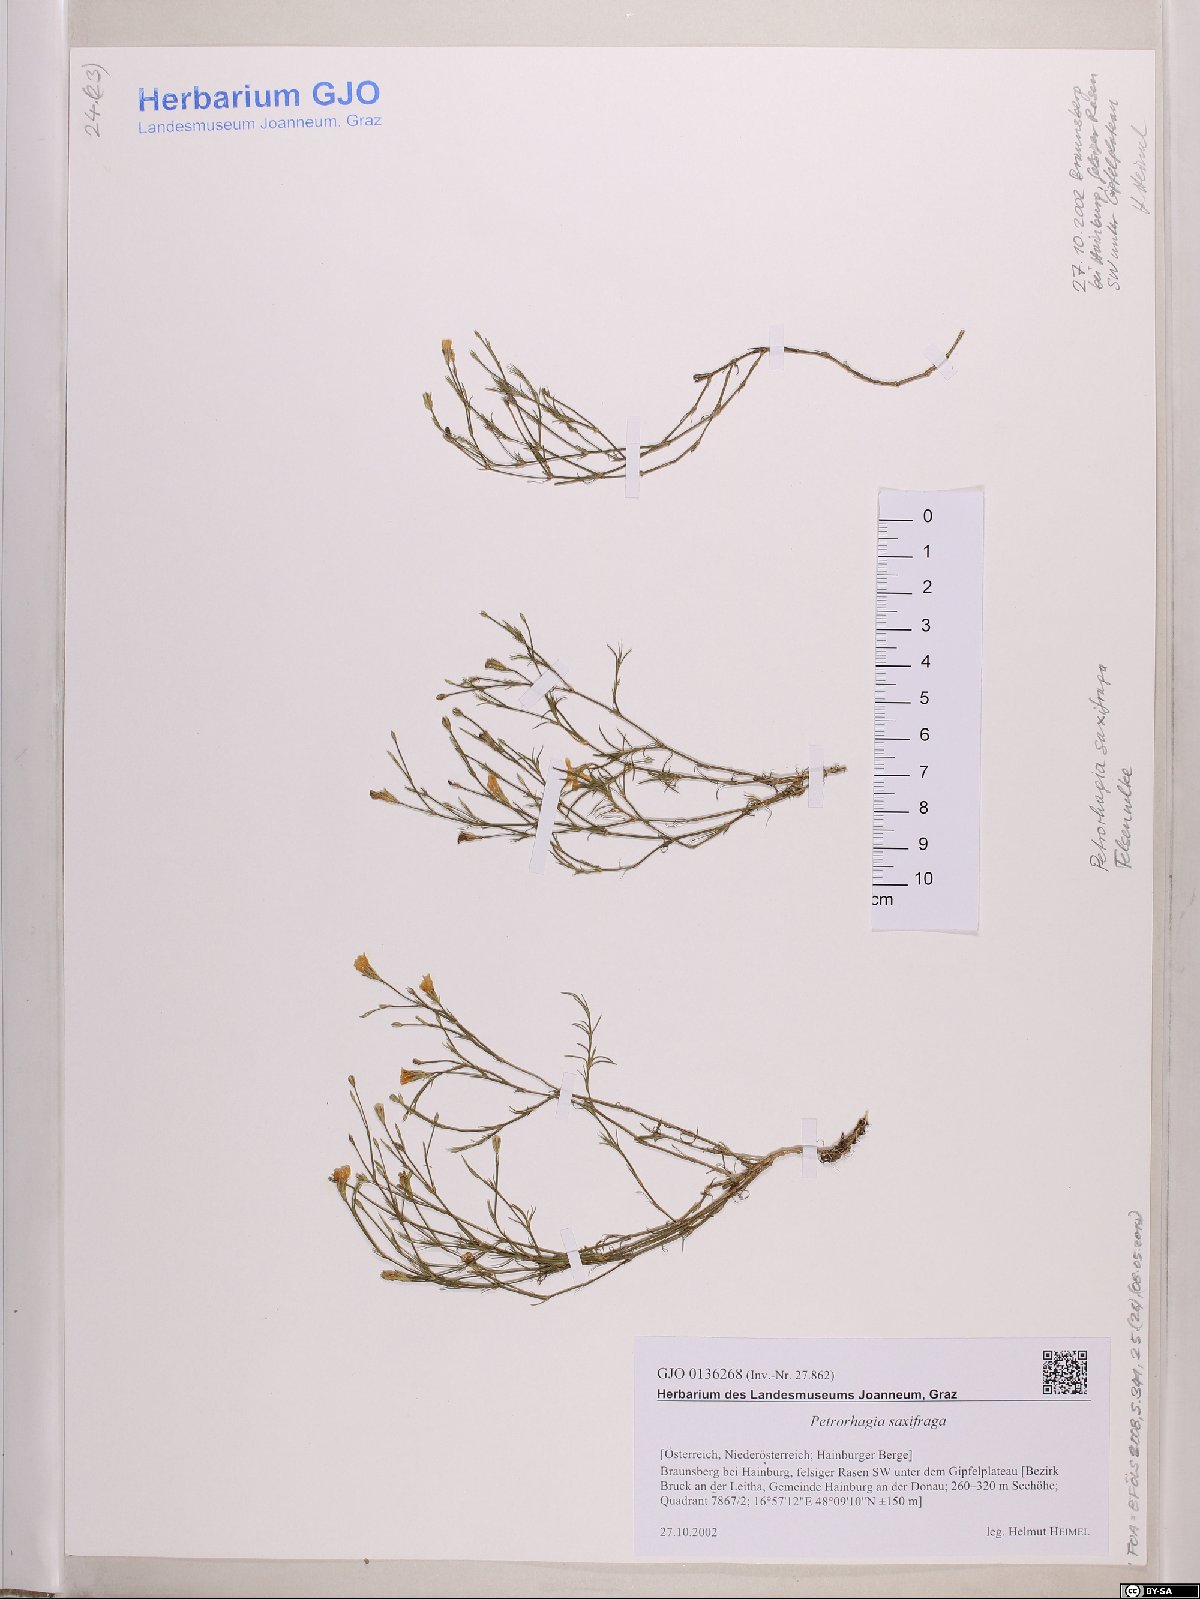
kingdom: Plantae
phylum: Tracheophyta
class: Magnoliopsida
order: Caryophyllales
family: Caryophyllaceae
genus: Petrorhagia
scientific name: Petrorhagia saxifraga
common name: Tunicflower
